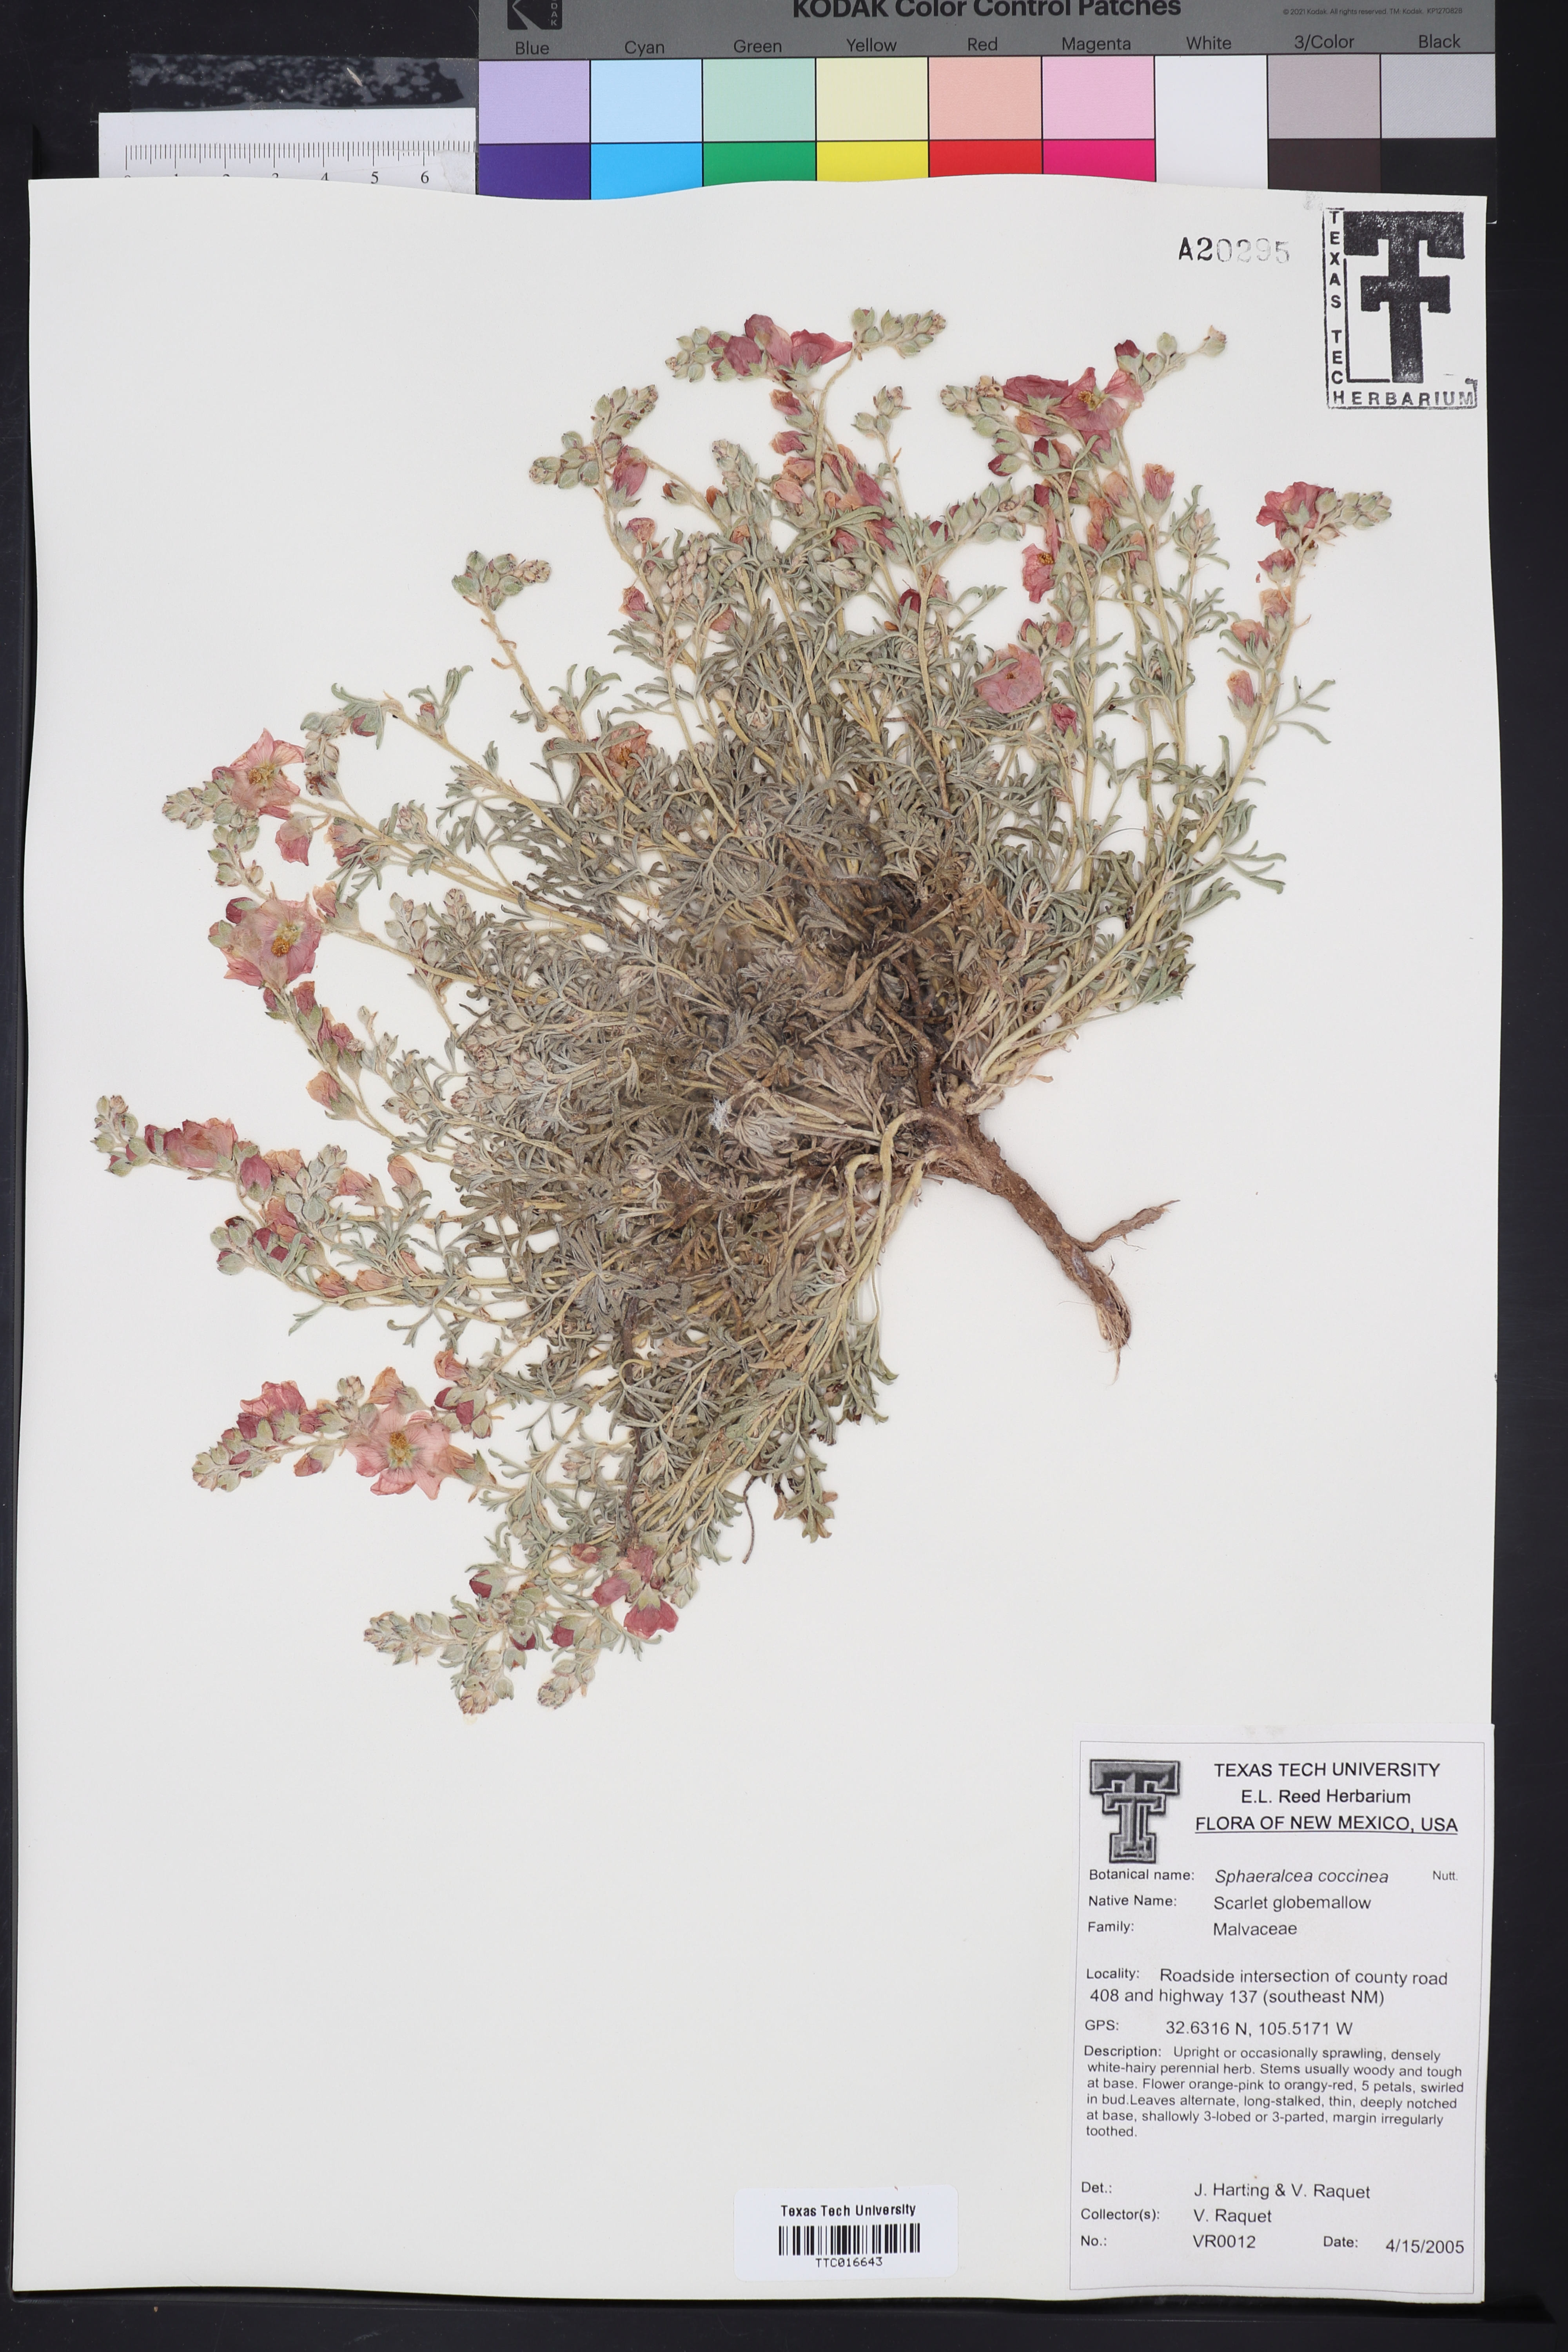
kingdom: Plantae
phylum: Tracheophyta
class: Magnoliopsida
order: Malvales
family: Malvaceae
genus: Sphaeralcea
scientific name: Sphaeralcea coccinea
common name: Moss-rose
